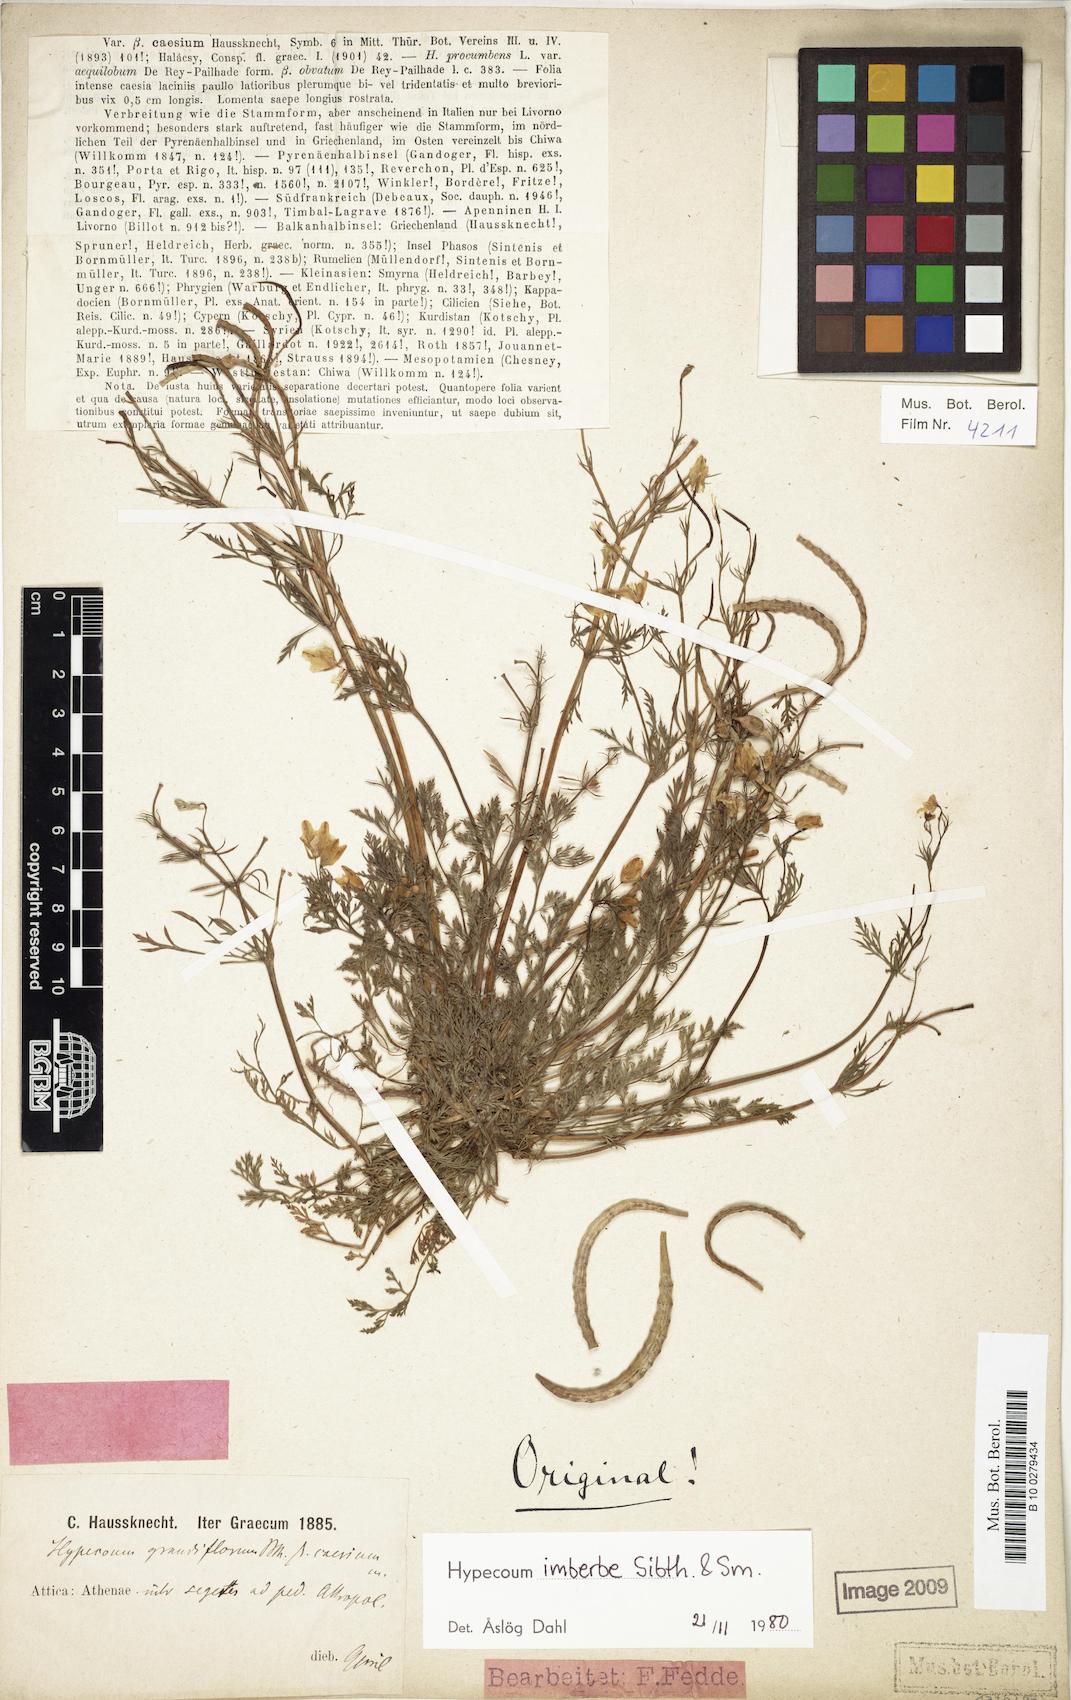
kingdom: Plantae
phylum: Tracheophyta
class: Magnoliopsida
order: Ranunculales
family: Papaveraceae
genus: Hypecoum
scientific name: Hypecoum imberbe
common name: Sicklefruit hypecoum
